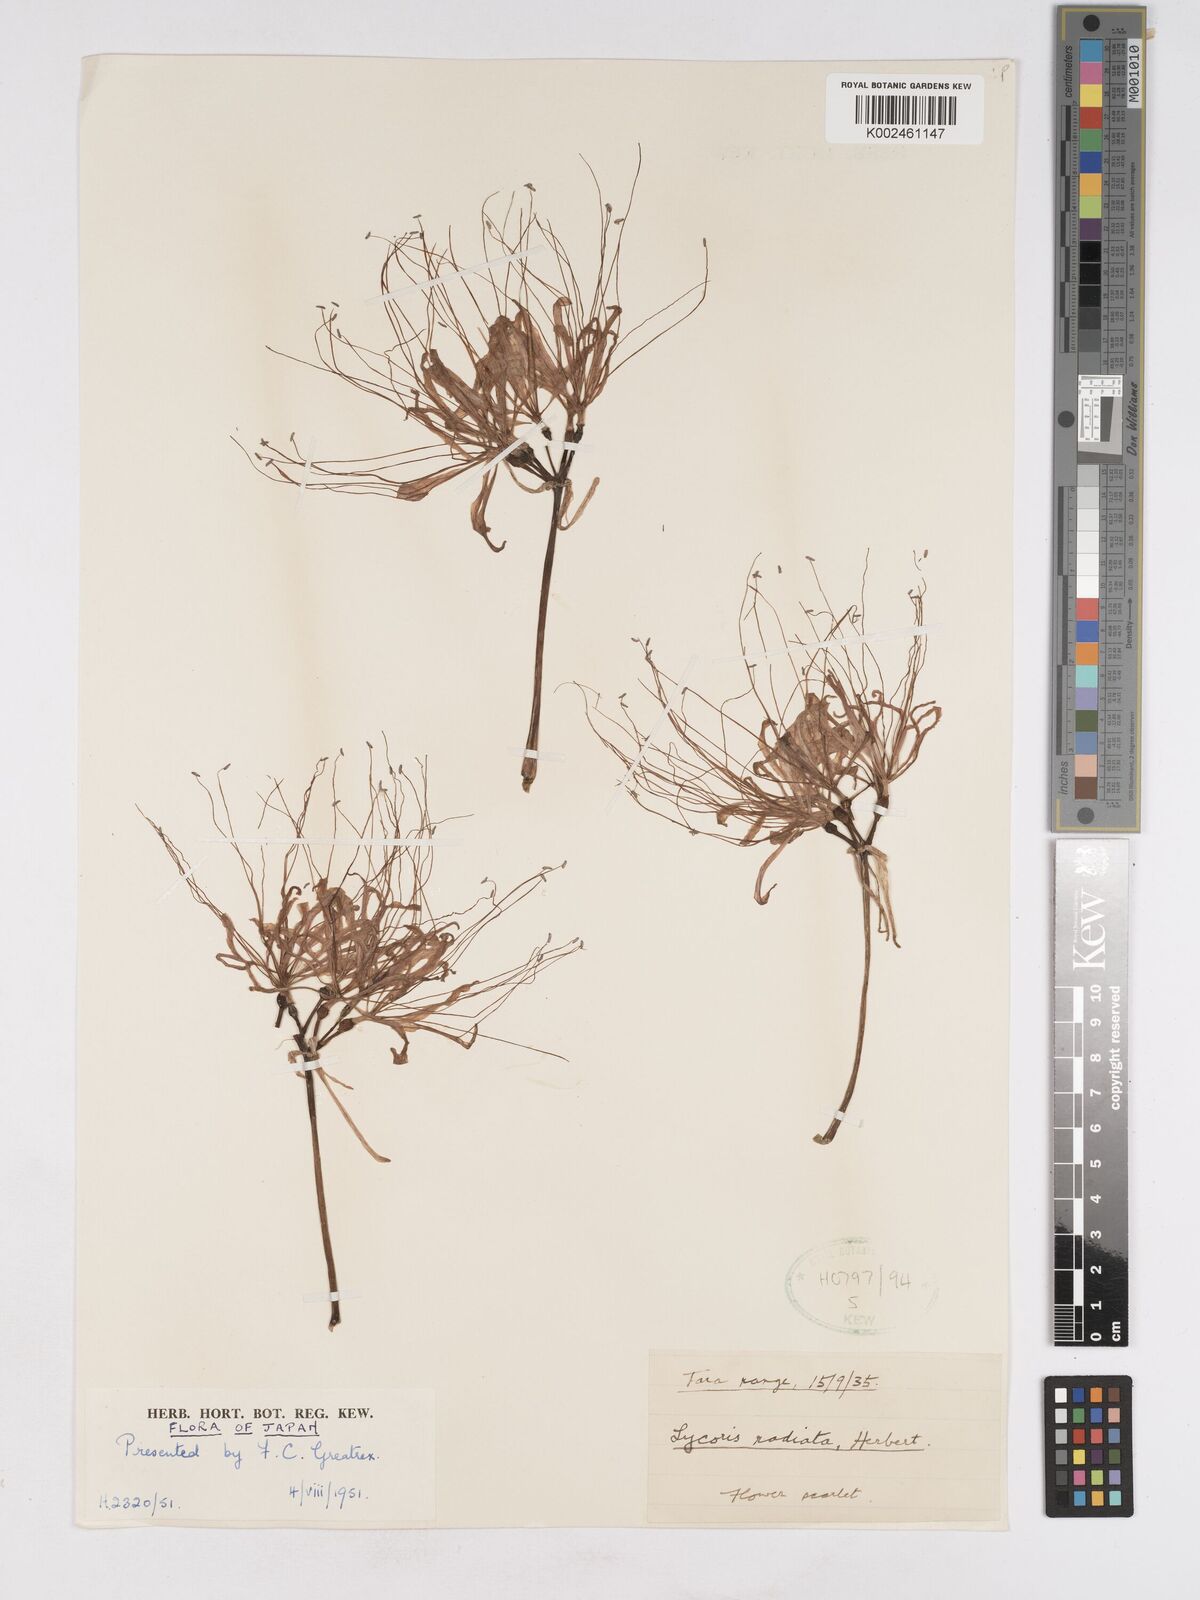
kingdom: Plantae
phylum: Tracheophyta
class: Liliopsida
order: Asparagales
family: Amaryllidaceae
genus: Lycoris
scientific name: Lycoris radiata
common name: Red spider lily
